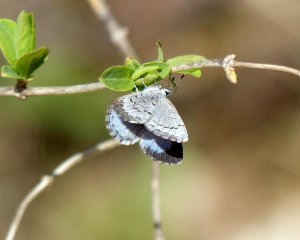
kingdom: Animalia
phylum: Arthropoda
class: Insecta
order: Lepidoptera
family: Lycaenidae
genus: Celastrina
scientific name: Celastrina lucia
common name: Northern Spring Azure
